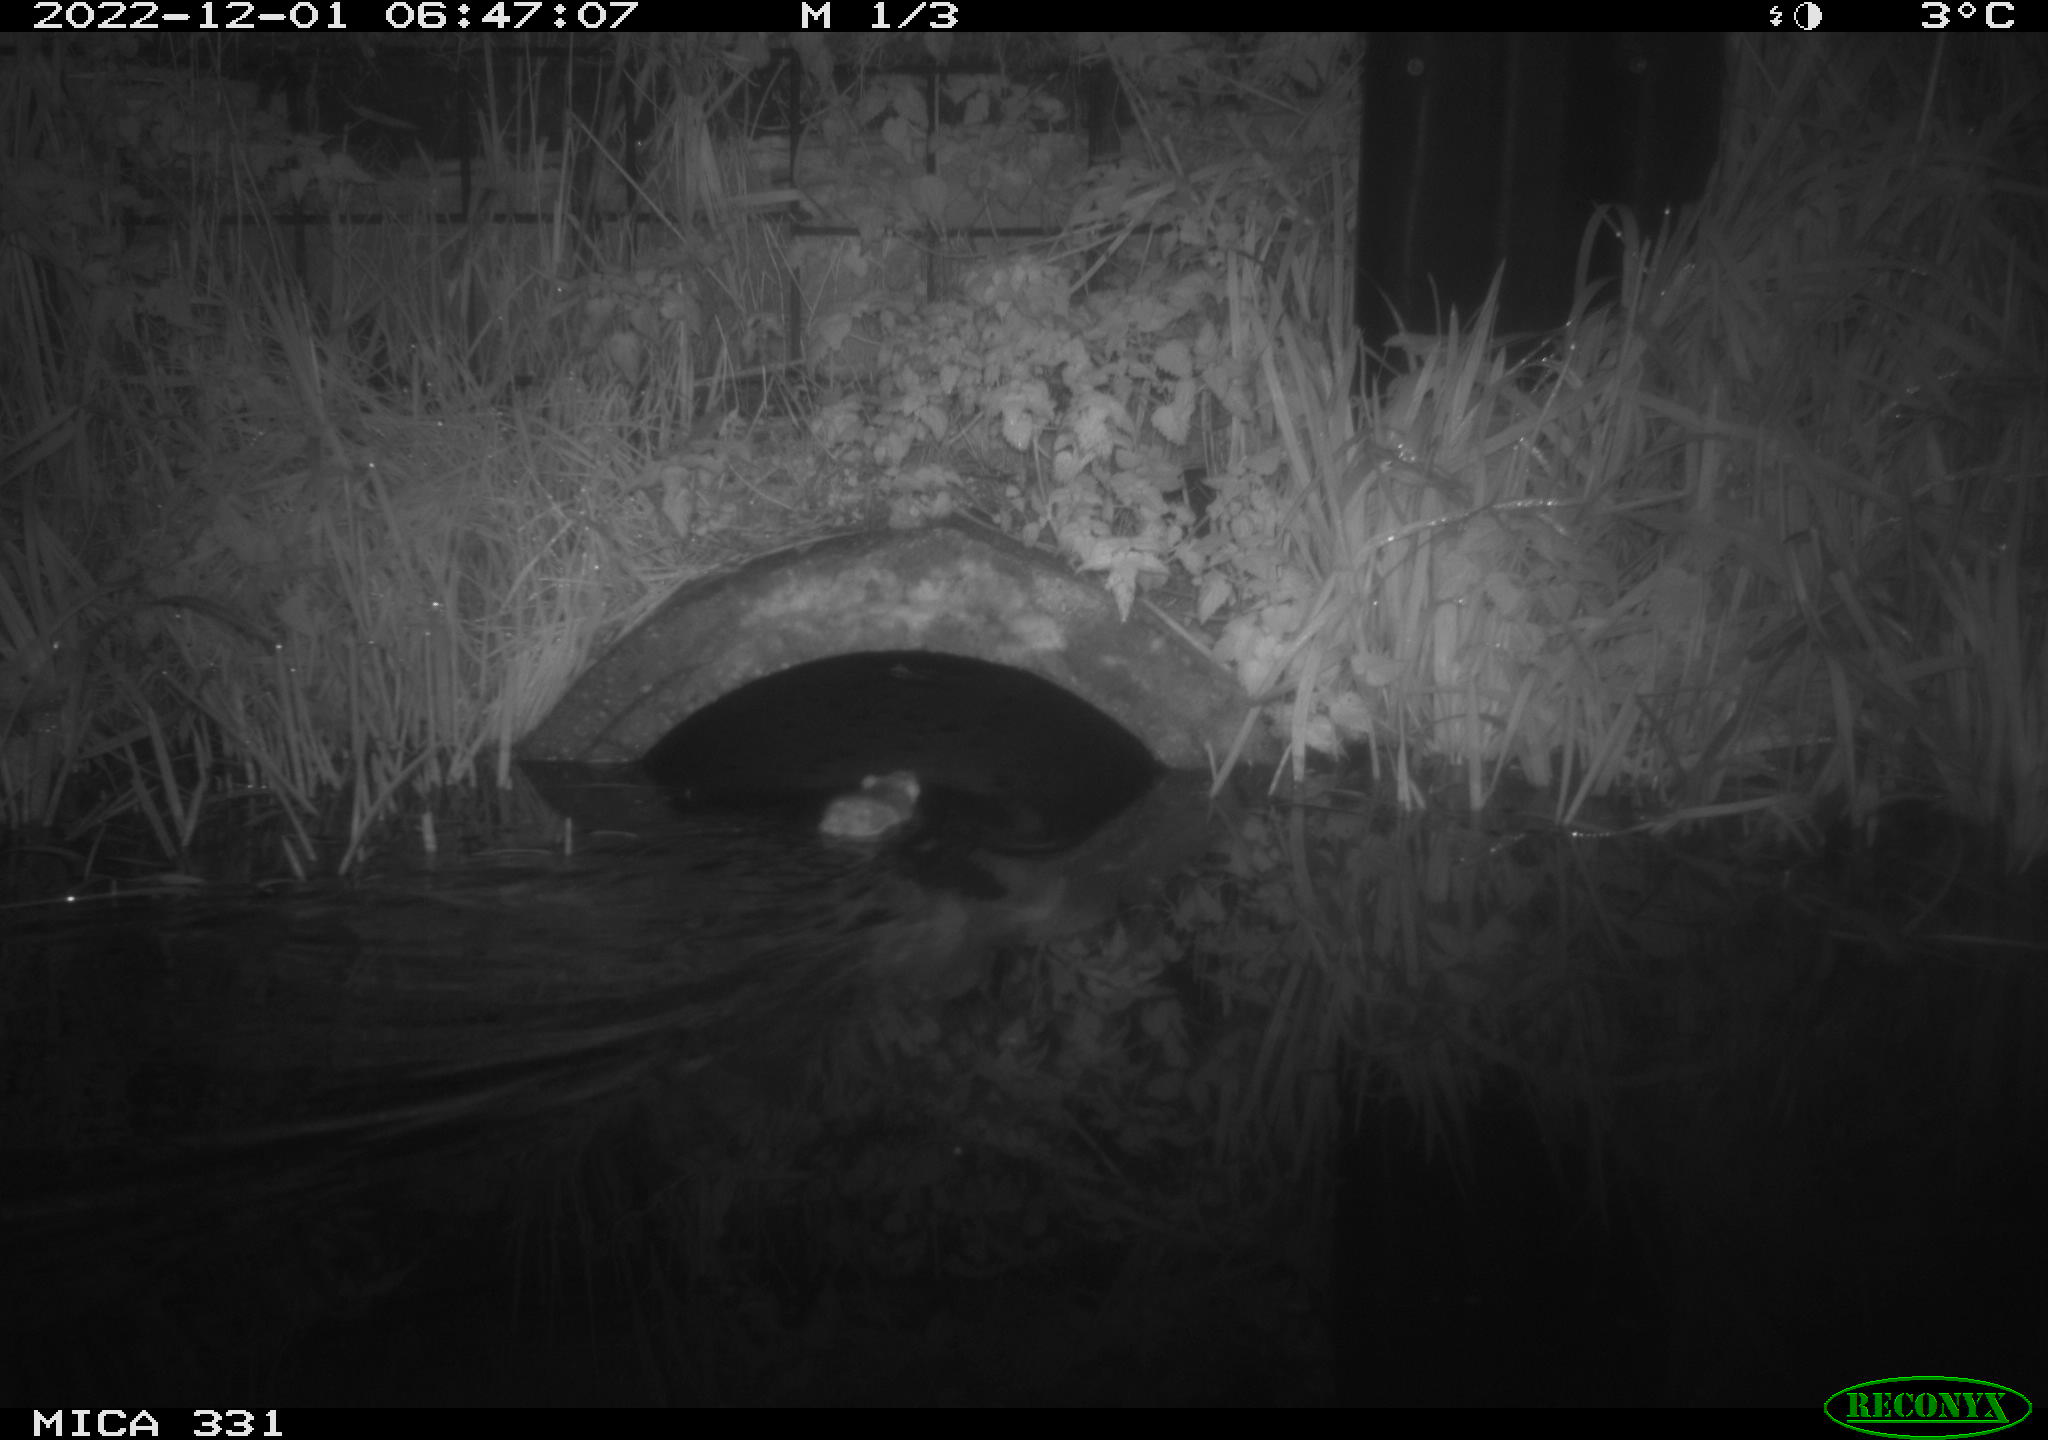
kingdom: Animalia
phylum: Chordata
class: Mammalia
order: Rodentia
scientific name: Rodentia
